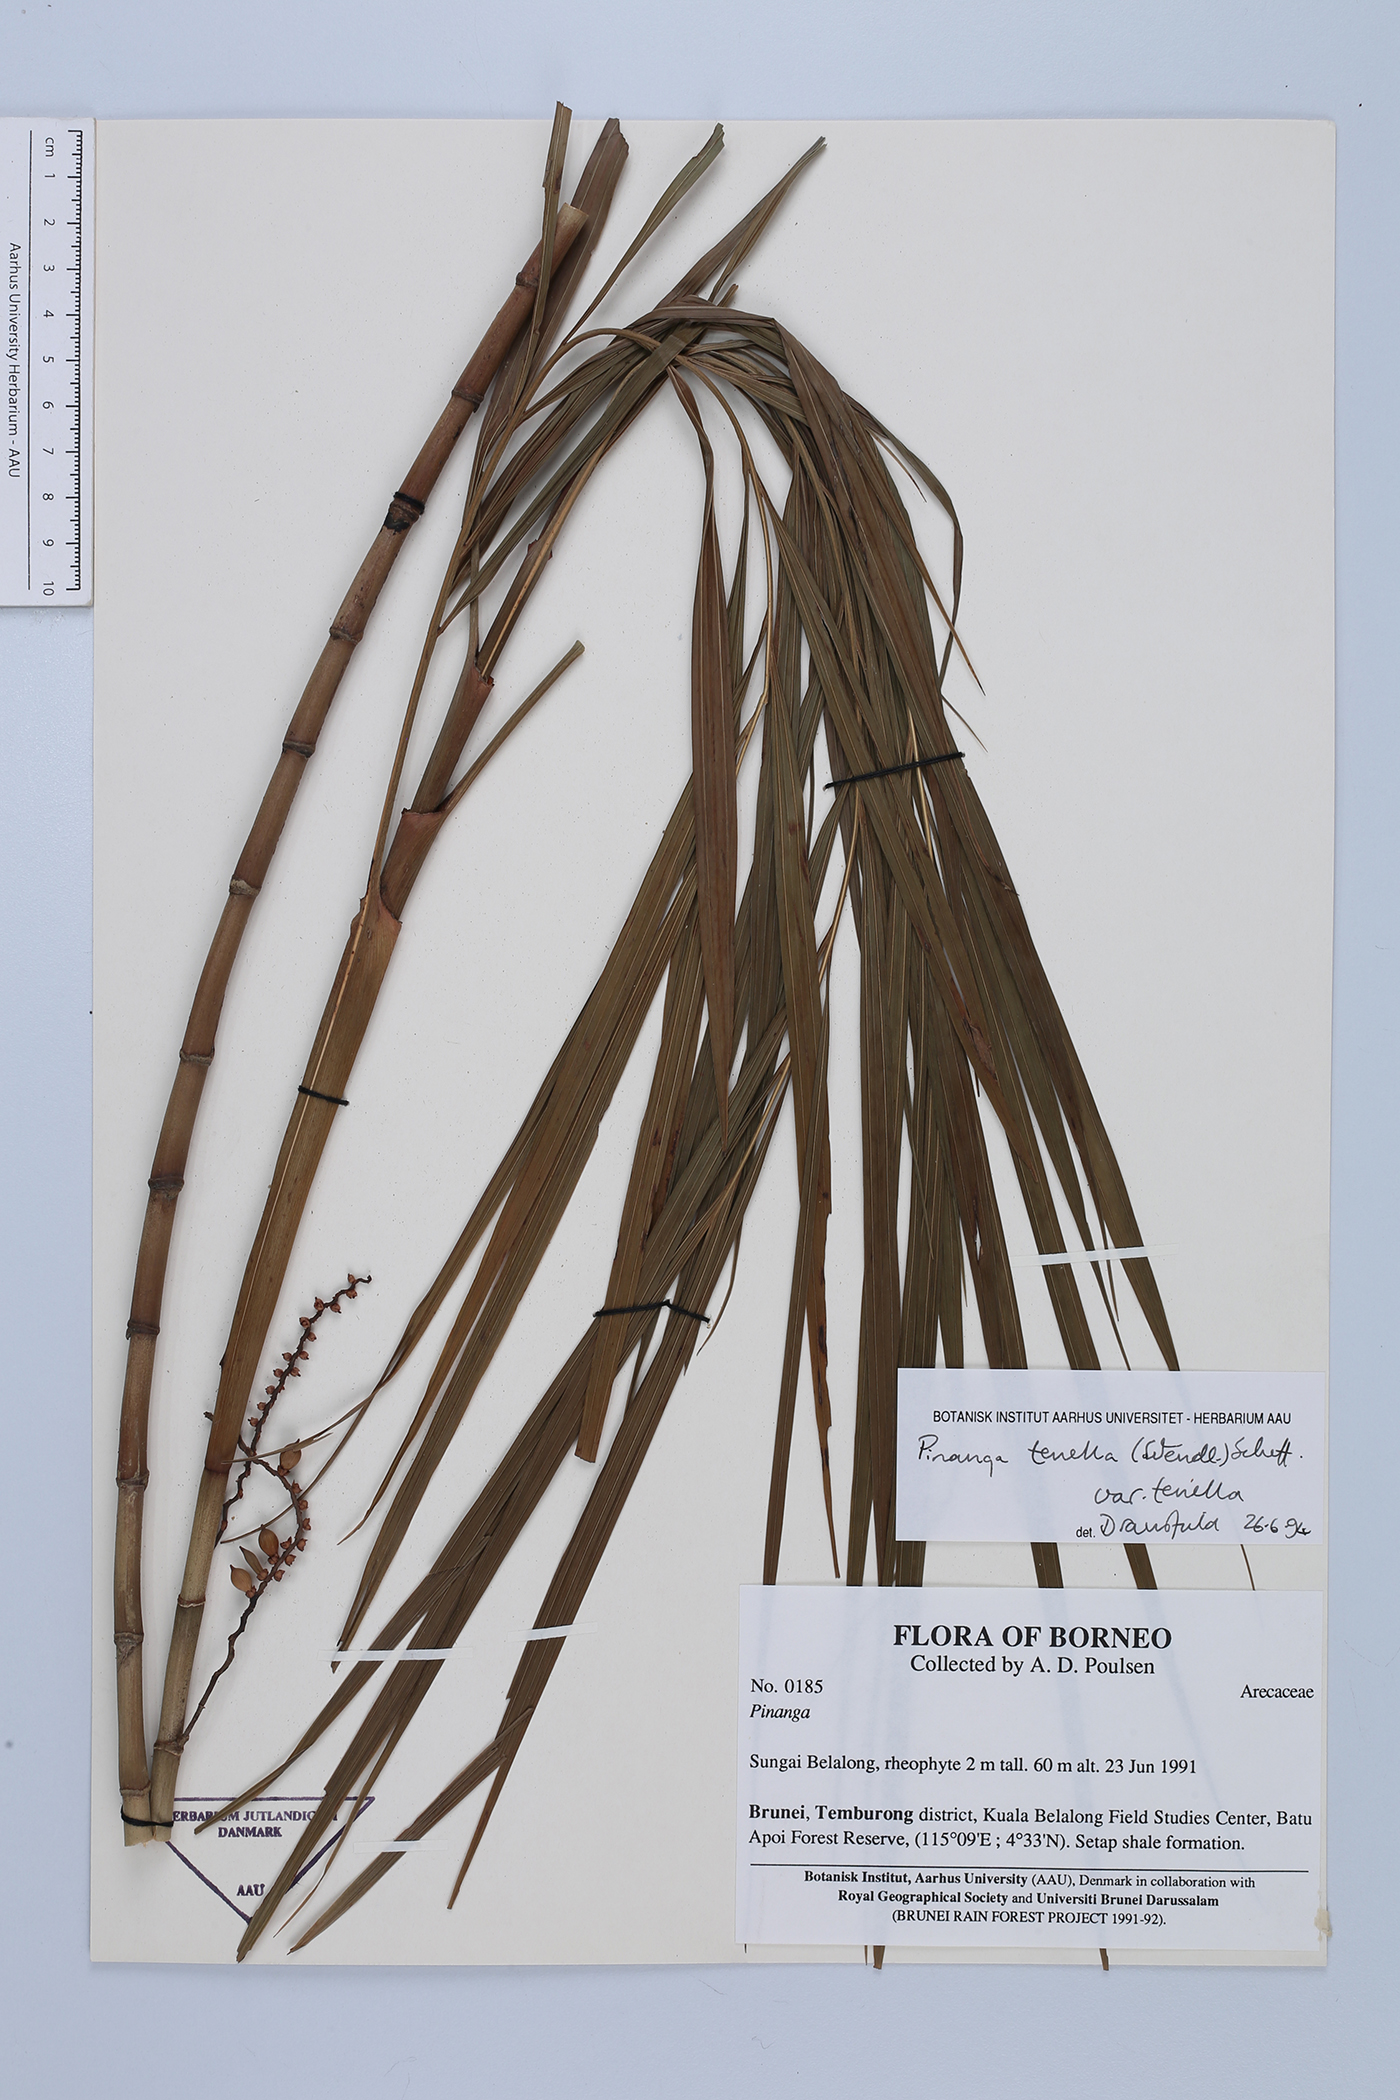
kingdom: Plantae
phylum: Tracheophyta
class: Liliopsida
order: Arecales
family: Arecaceae
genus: Pinanga
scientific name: Pinanga tenella
